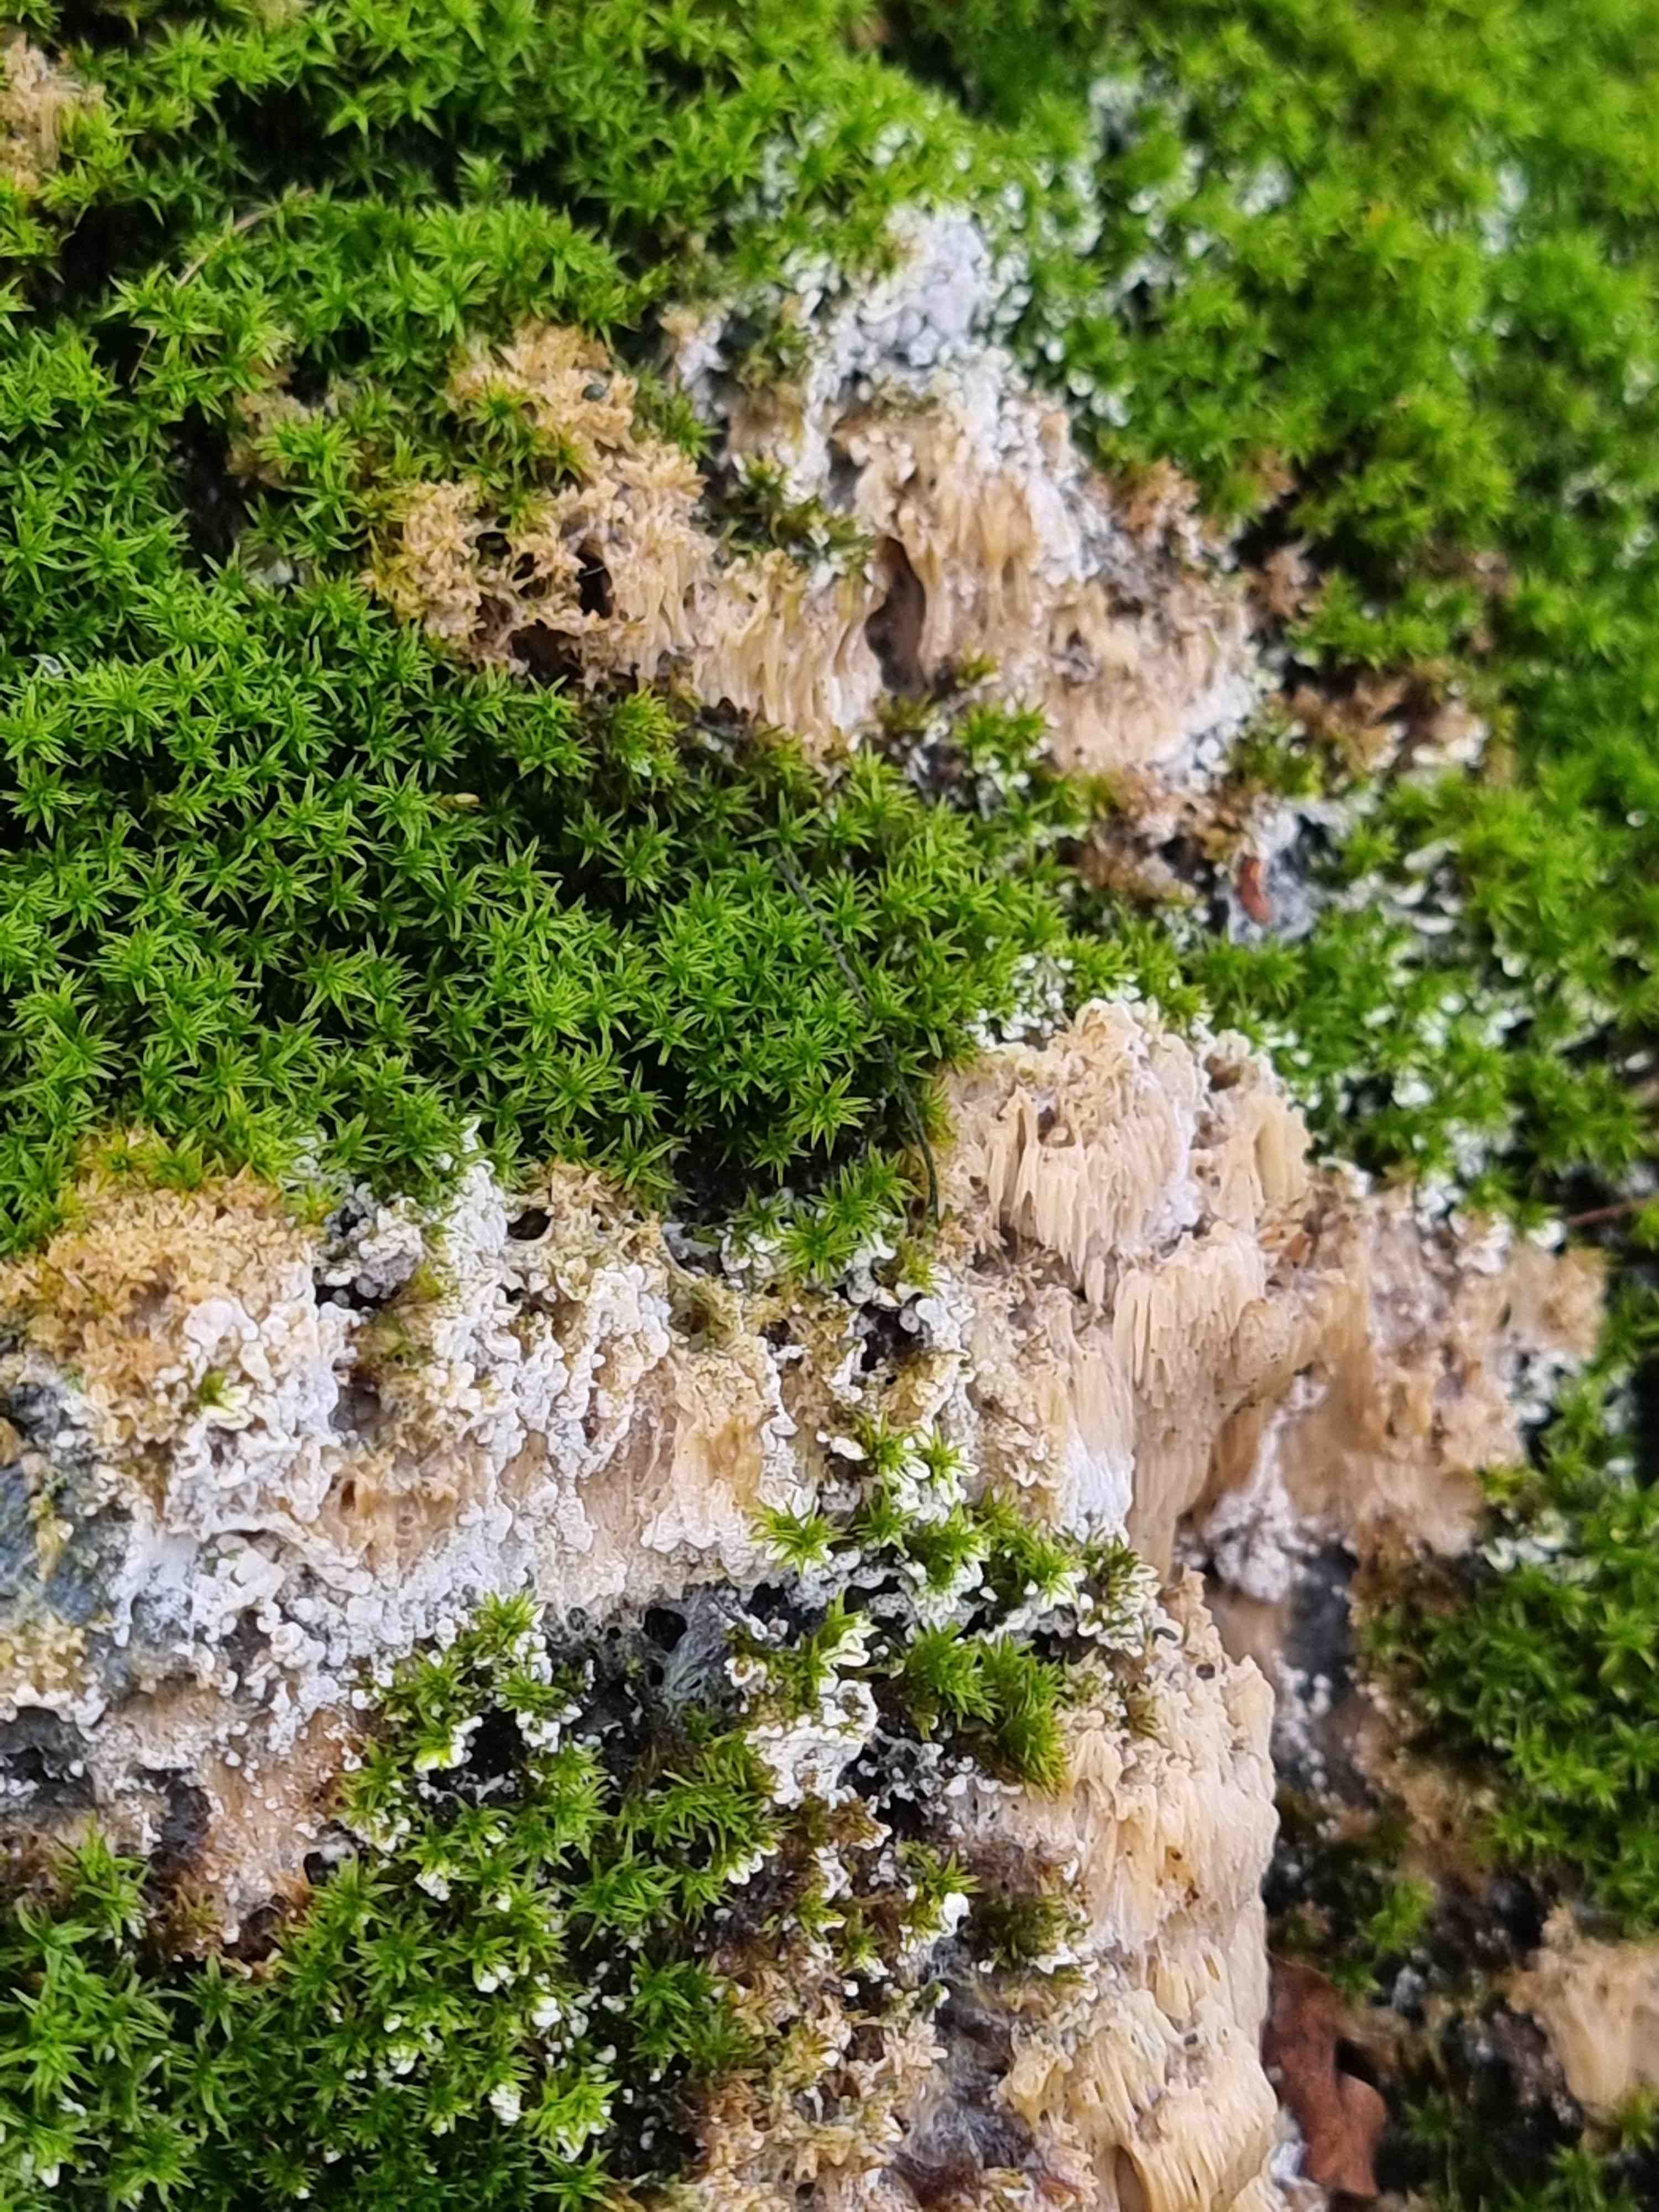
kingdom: Fungi
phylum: Basidiomycota
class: Agaricomycetes
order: Polyporales
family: Irpicaceae
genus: Irpex
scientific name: Irpex latemarginatus
